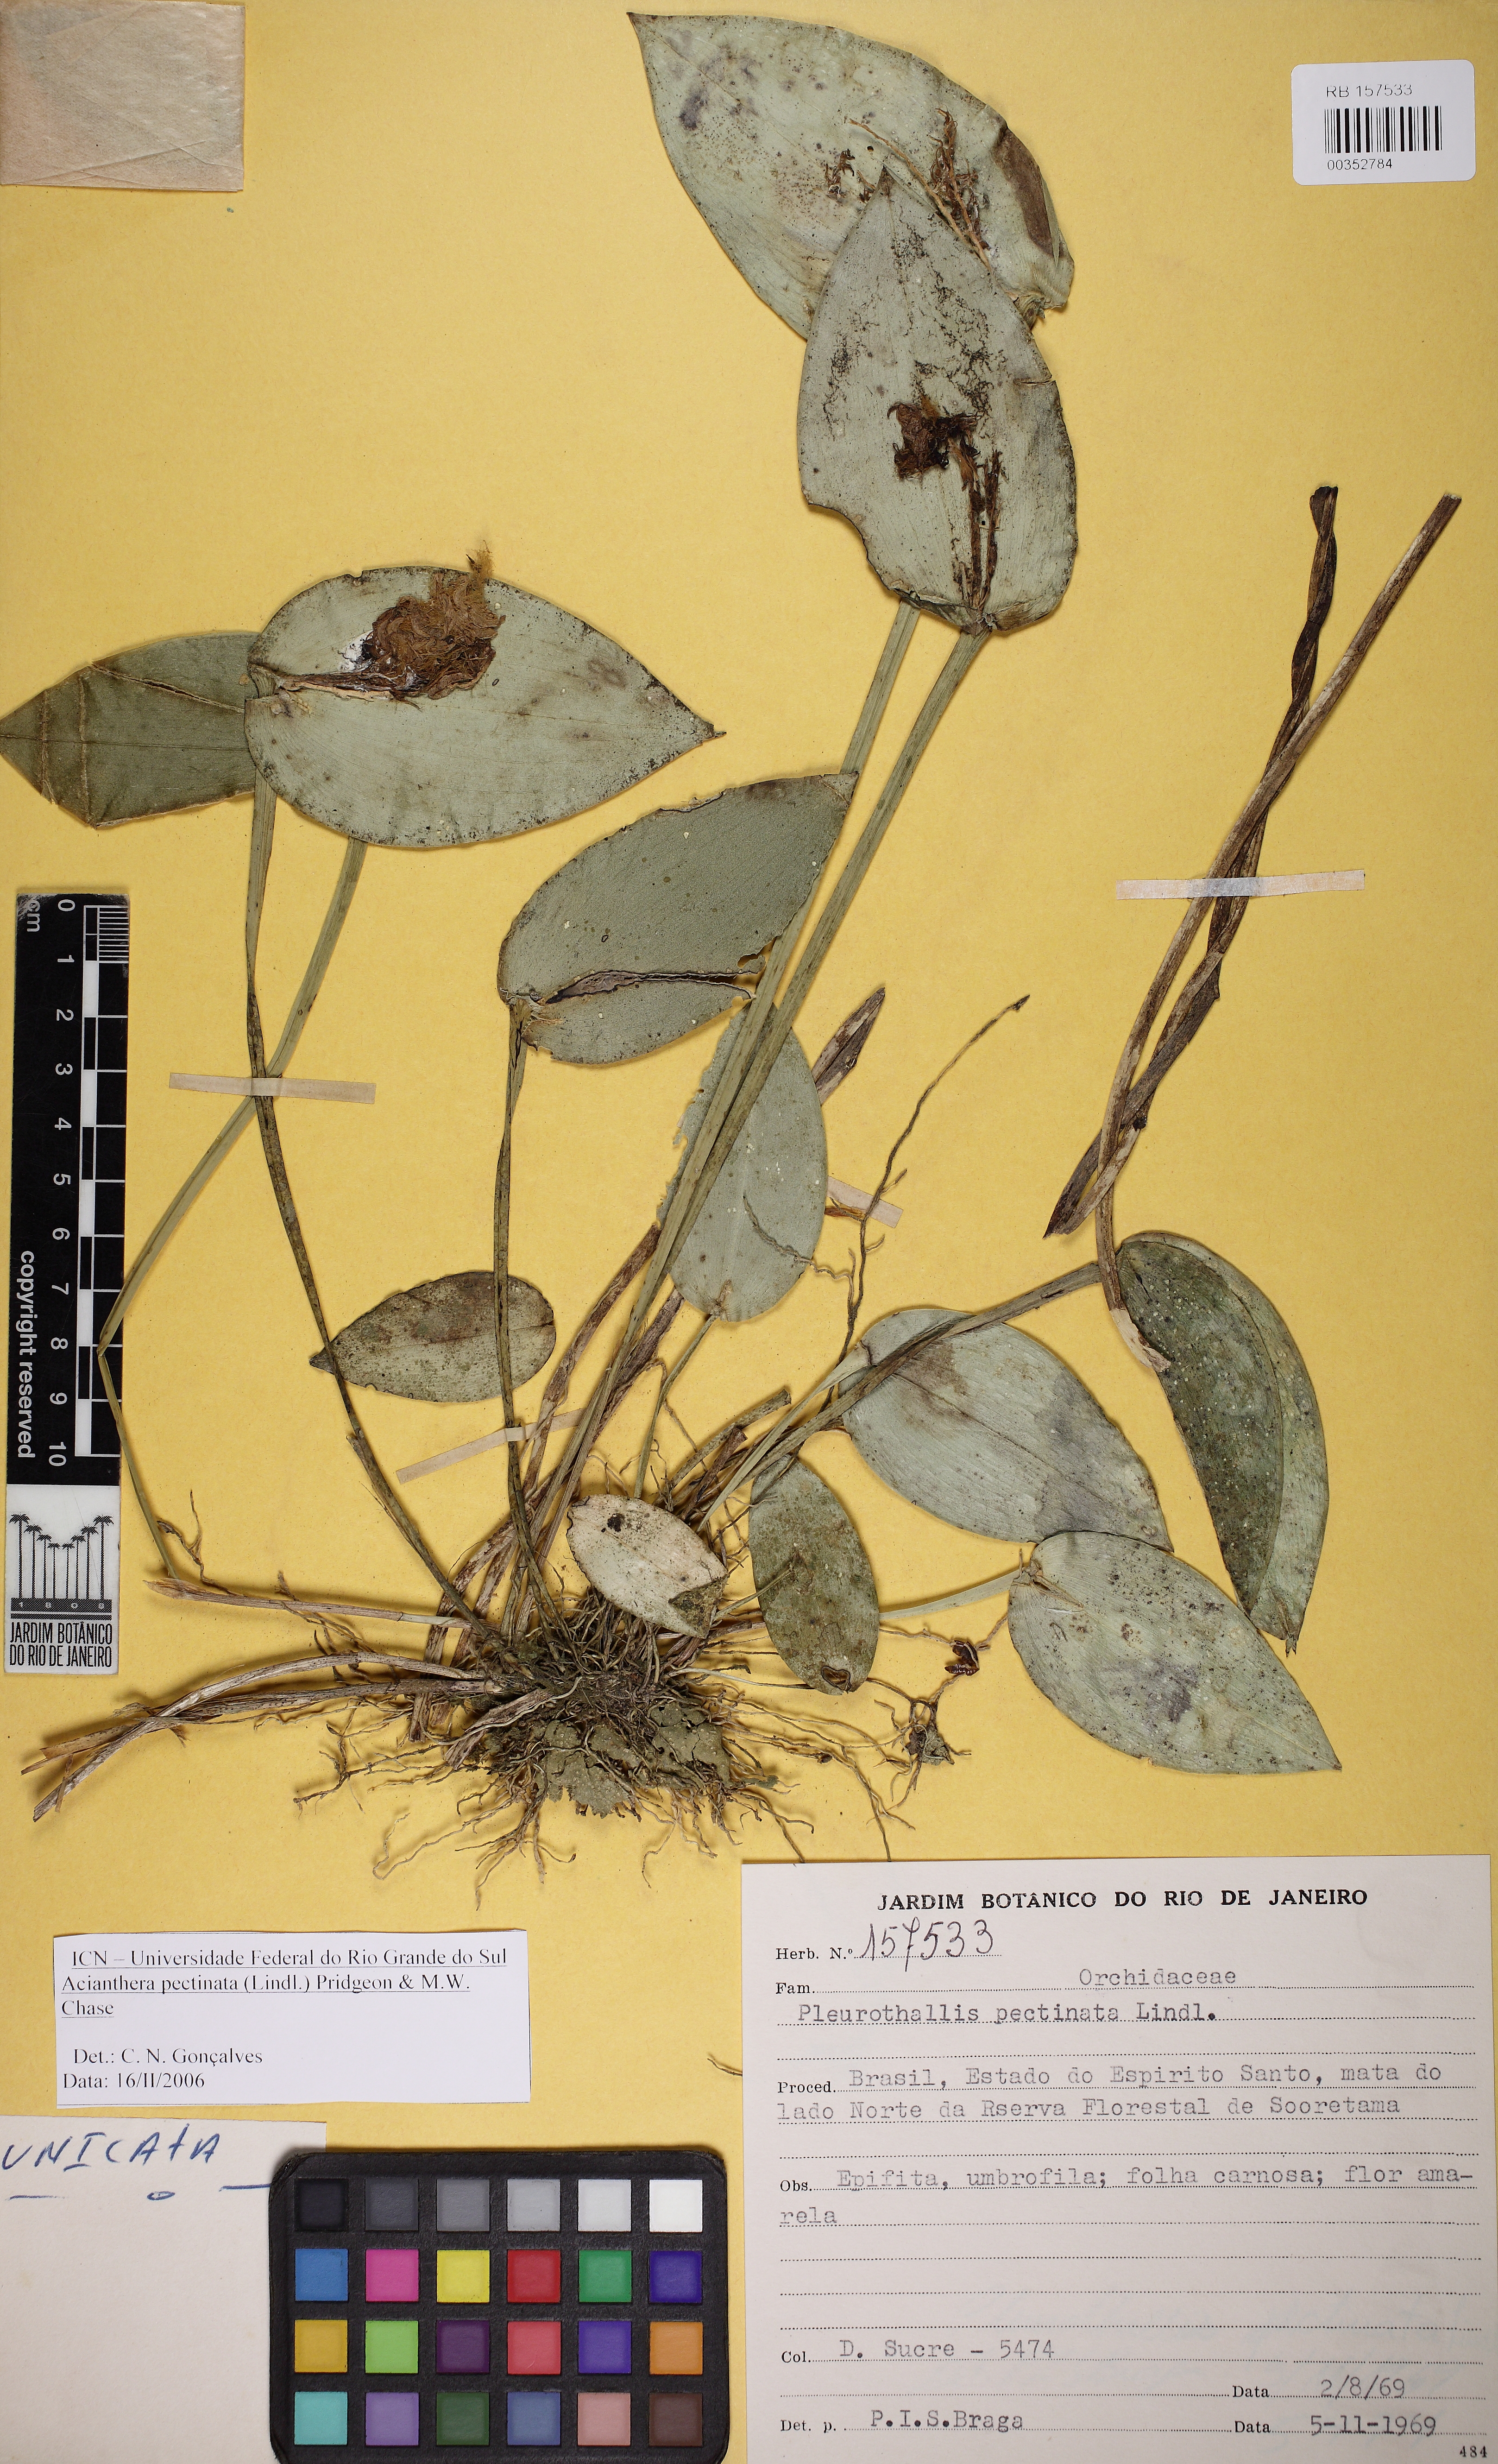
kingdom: Plantae
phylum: Tracheophyta
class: Liliopsida
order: Asparagales
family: Orchidaceae
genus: Acianthera
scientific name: Acianthera pectinata
